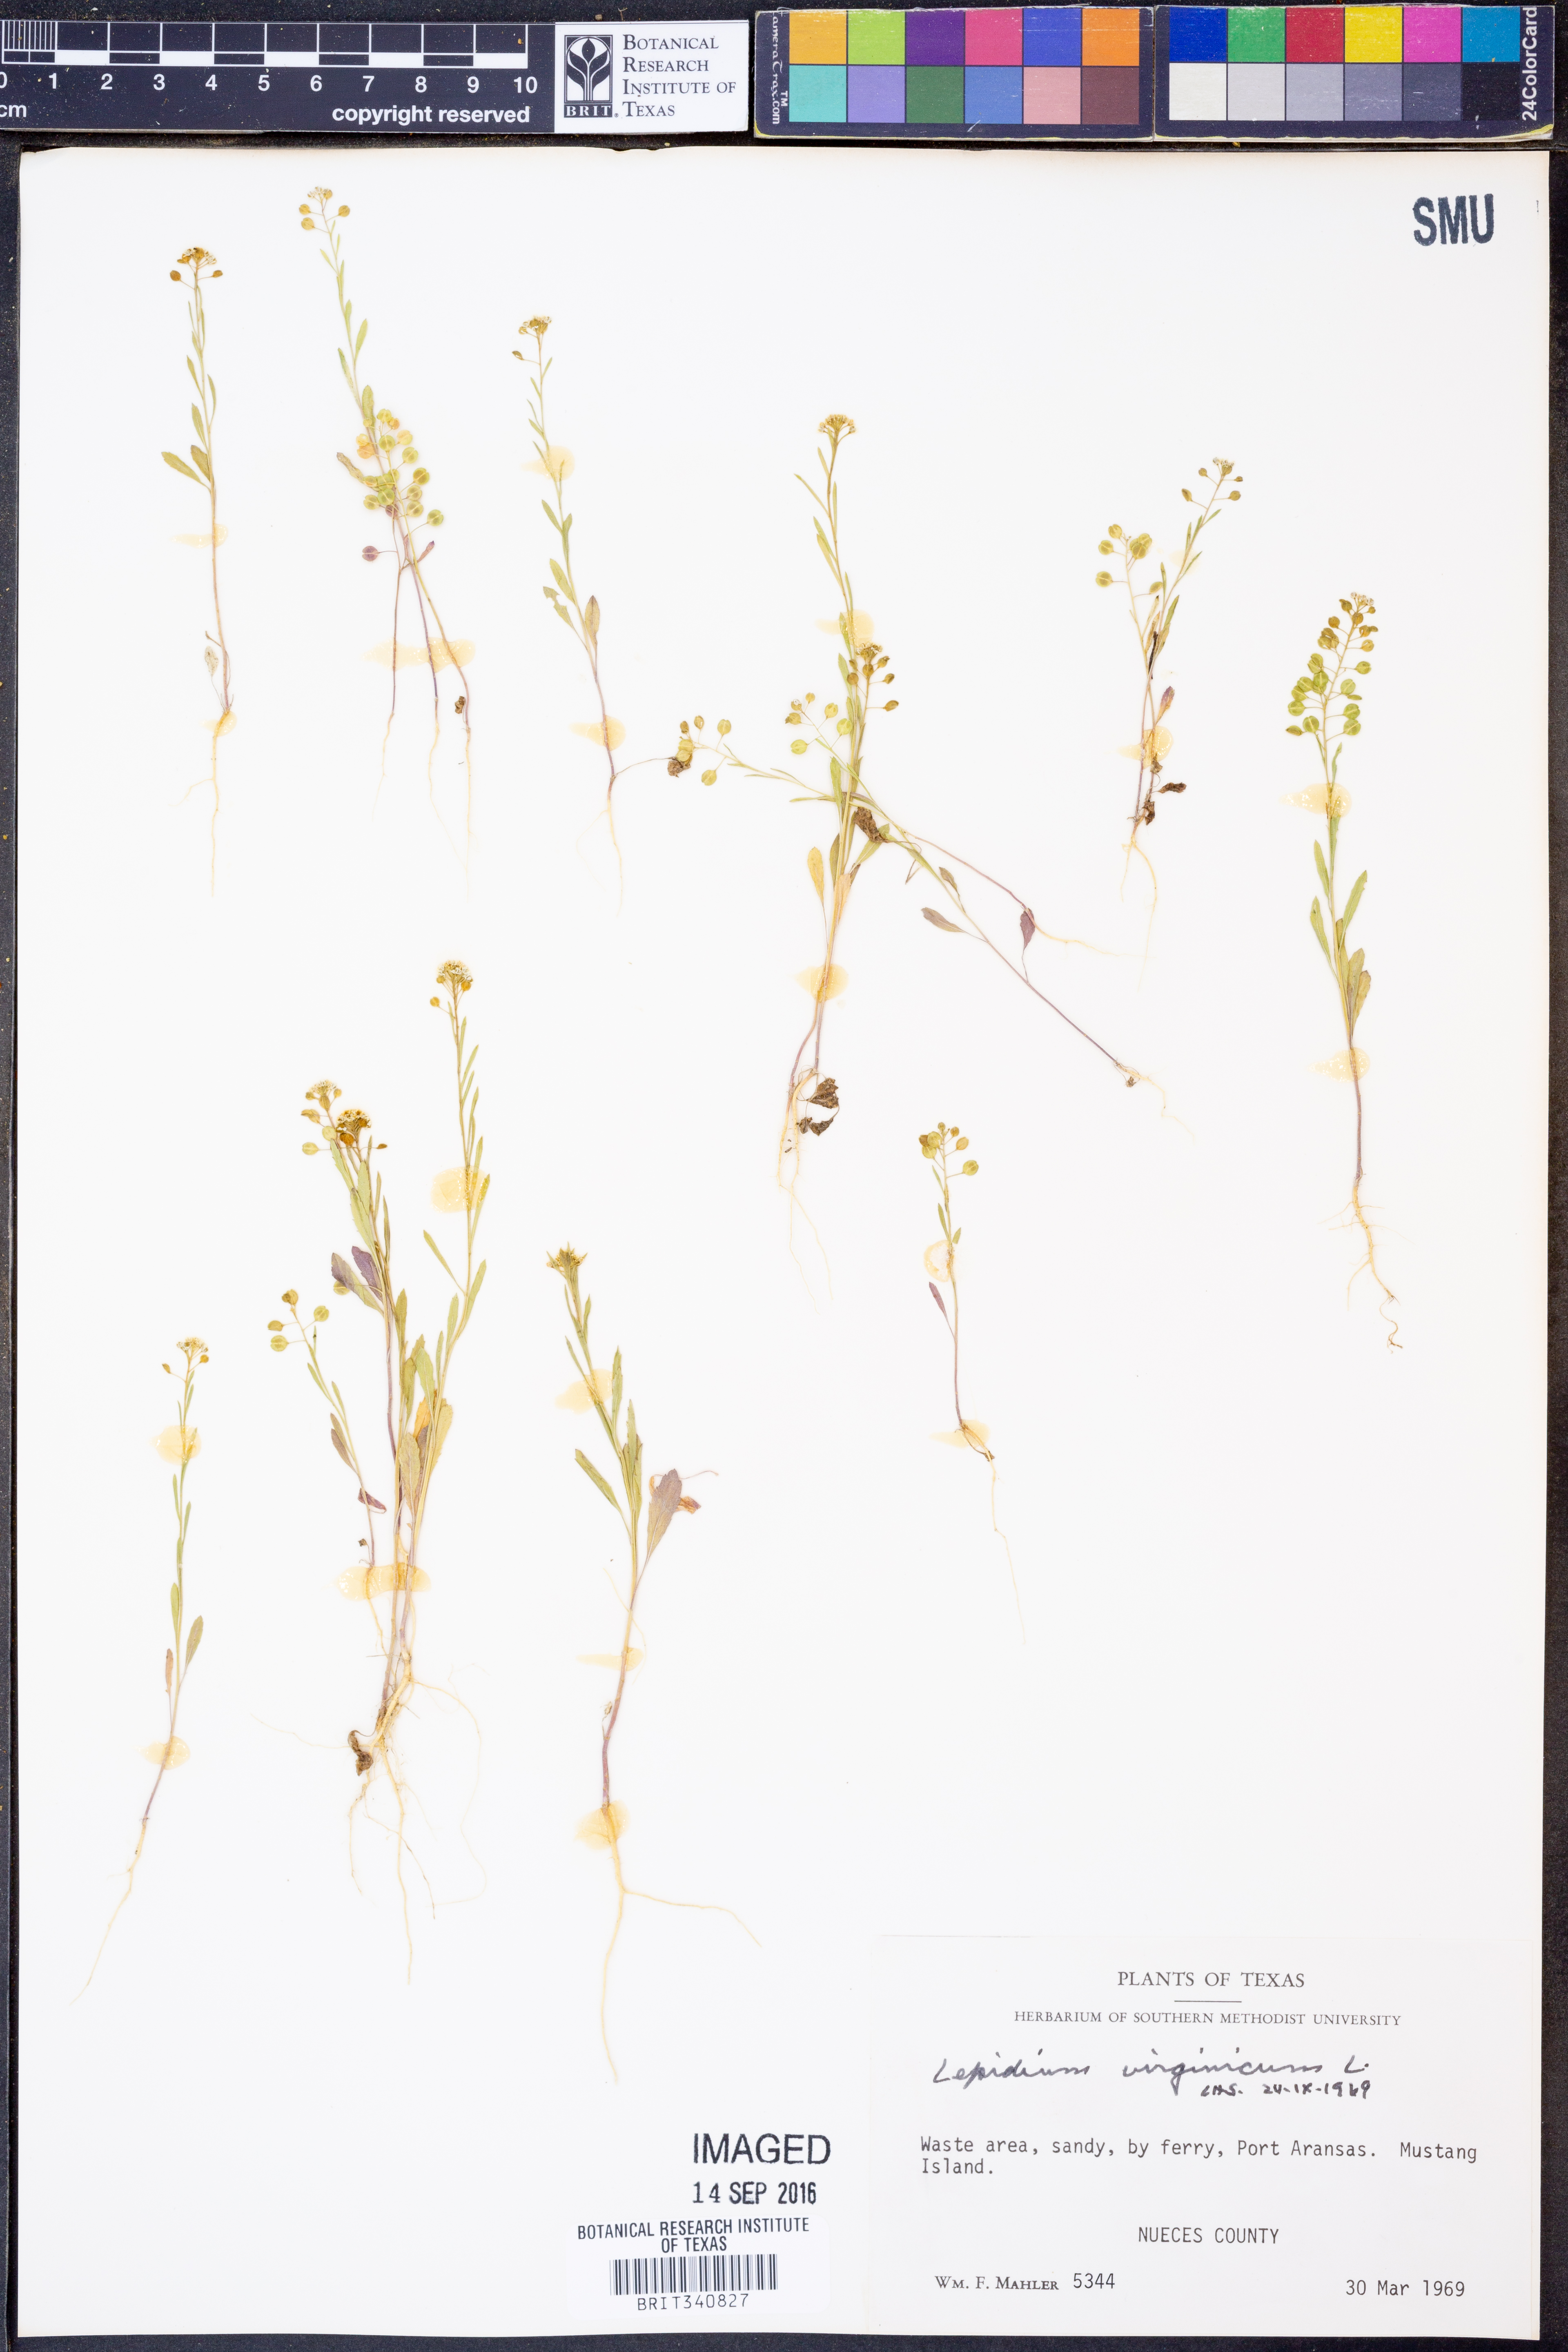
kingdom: Plantae
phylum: Tracheophyta
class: Magnoliopsida
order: Brassicales
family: Brassicaceae
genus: Lepidium
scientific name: Lepidium virginicum
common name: Least pepperwort
